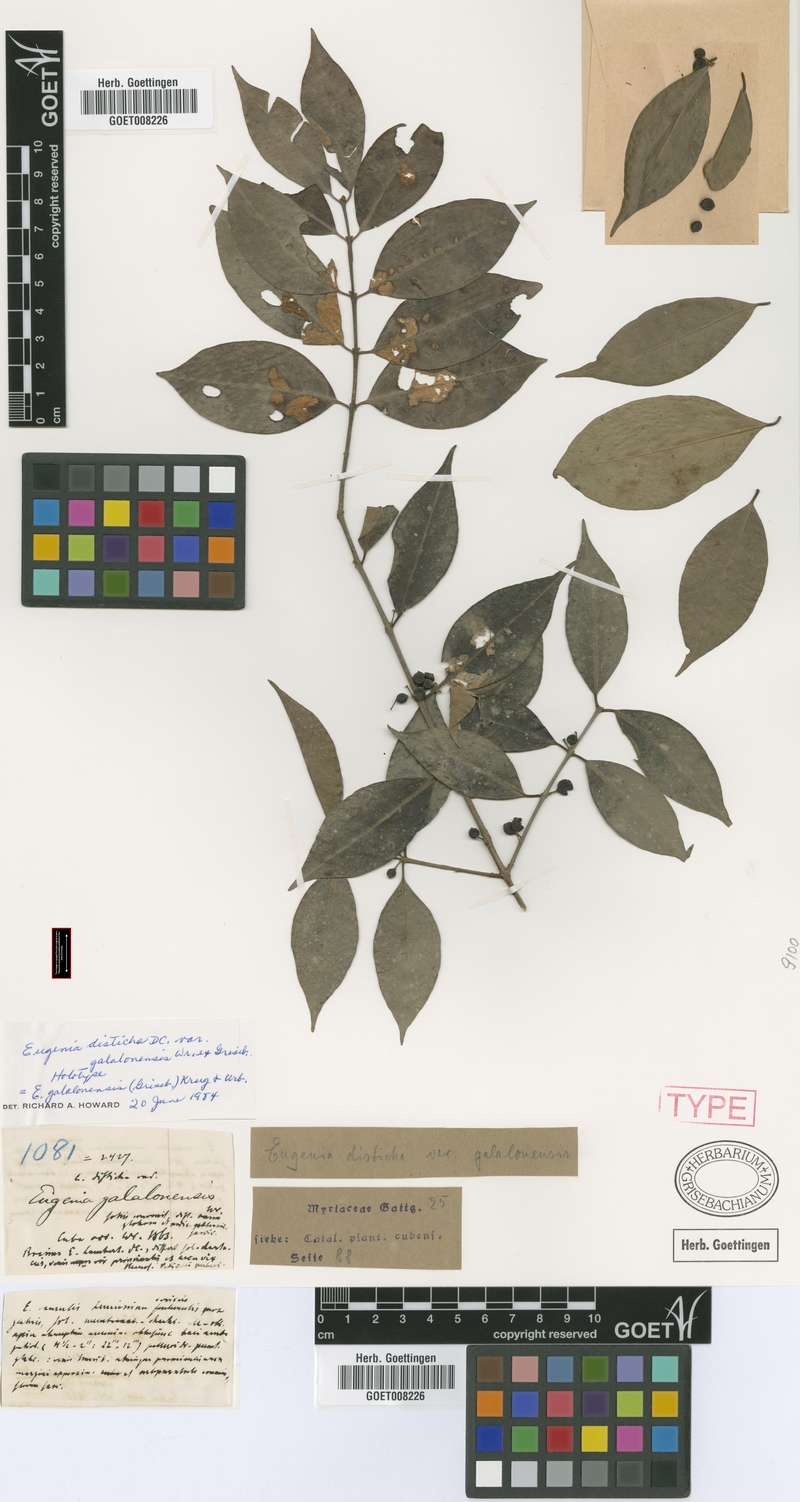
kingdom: Plantae
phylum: Tracheophyta
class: Magnoliopsida
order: Myrtales
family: Myrtaceae
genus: Eugenia
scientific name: Eugenia galalonensis
